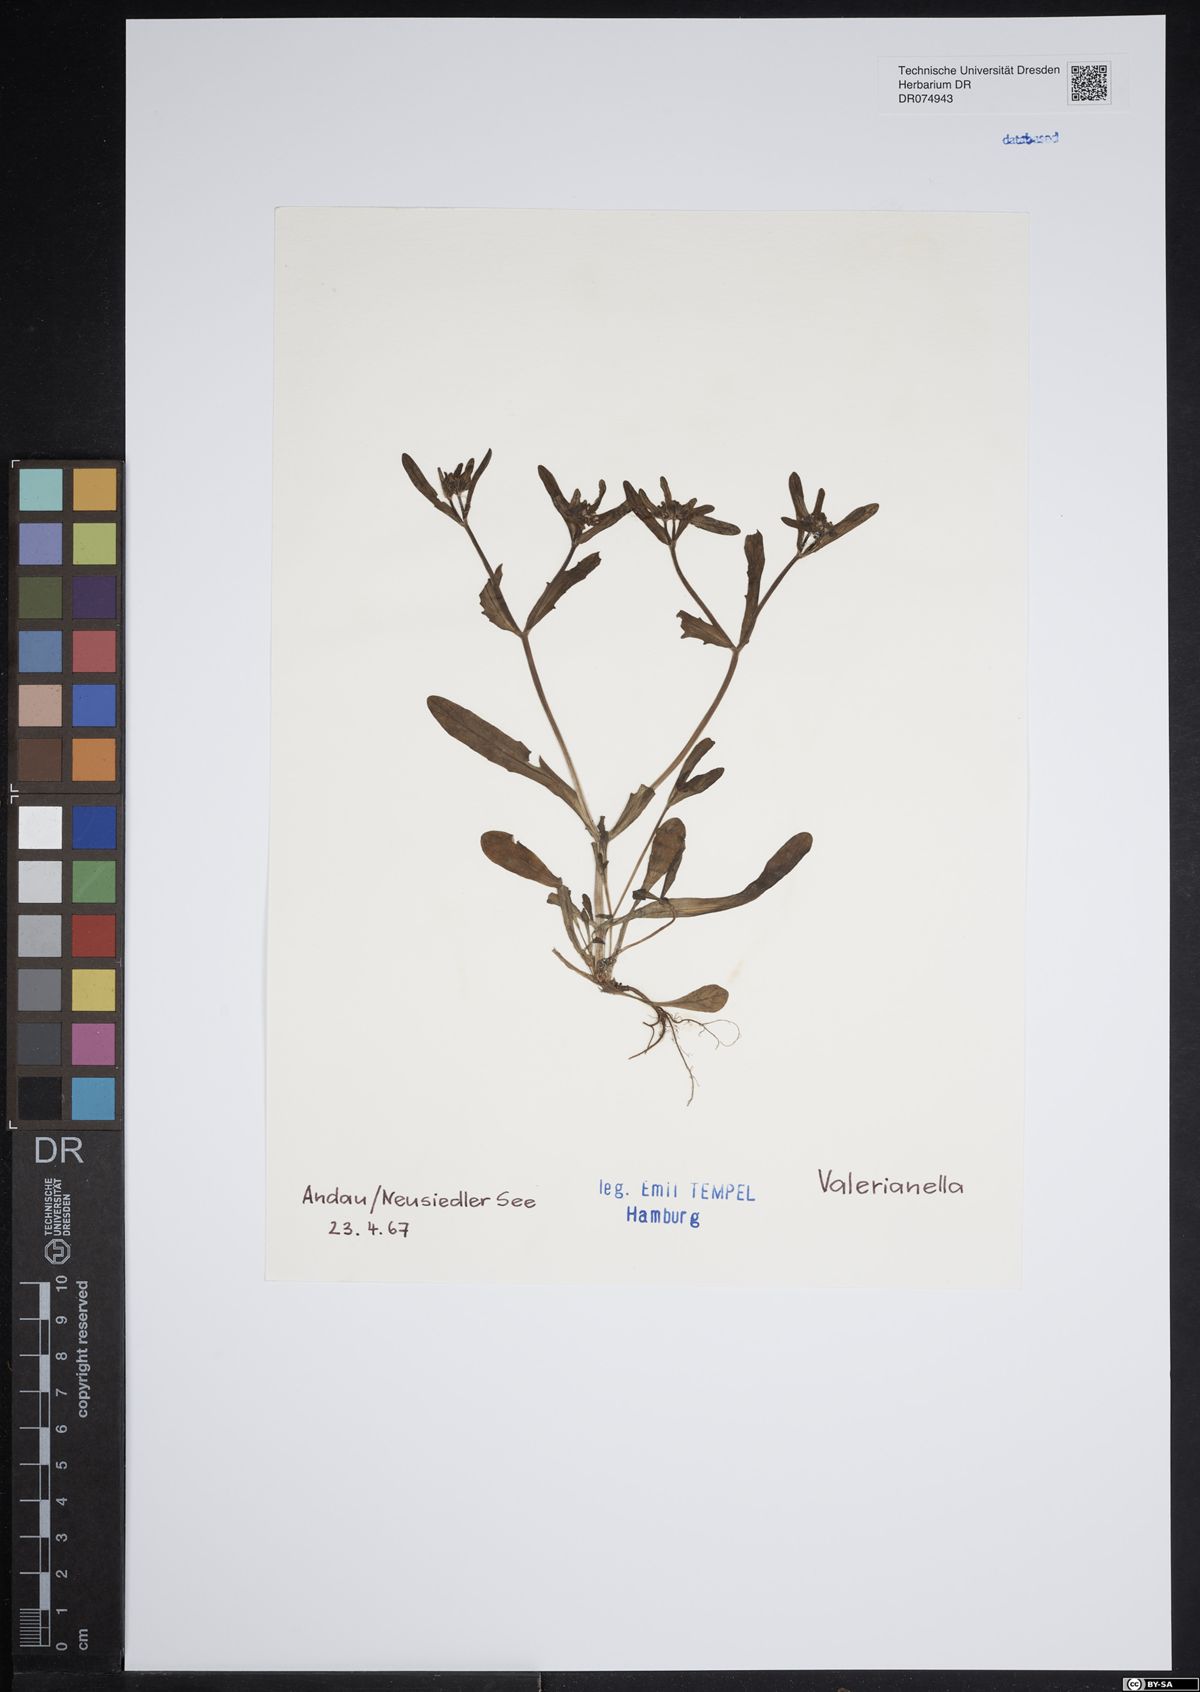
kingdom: Plantae
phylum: Tracheophyta
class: Magnoliopsida
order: Dipsacales
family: Caprifoliaceae
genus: Valerianella
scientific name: Valerianella
